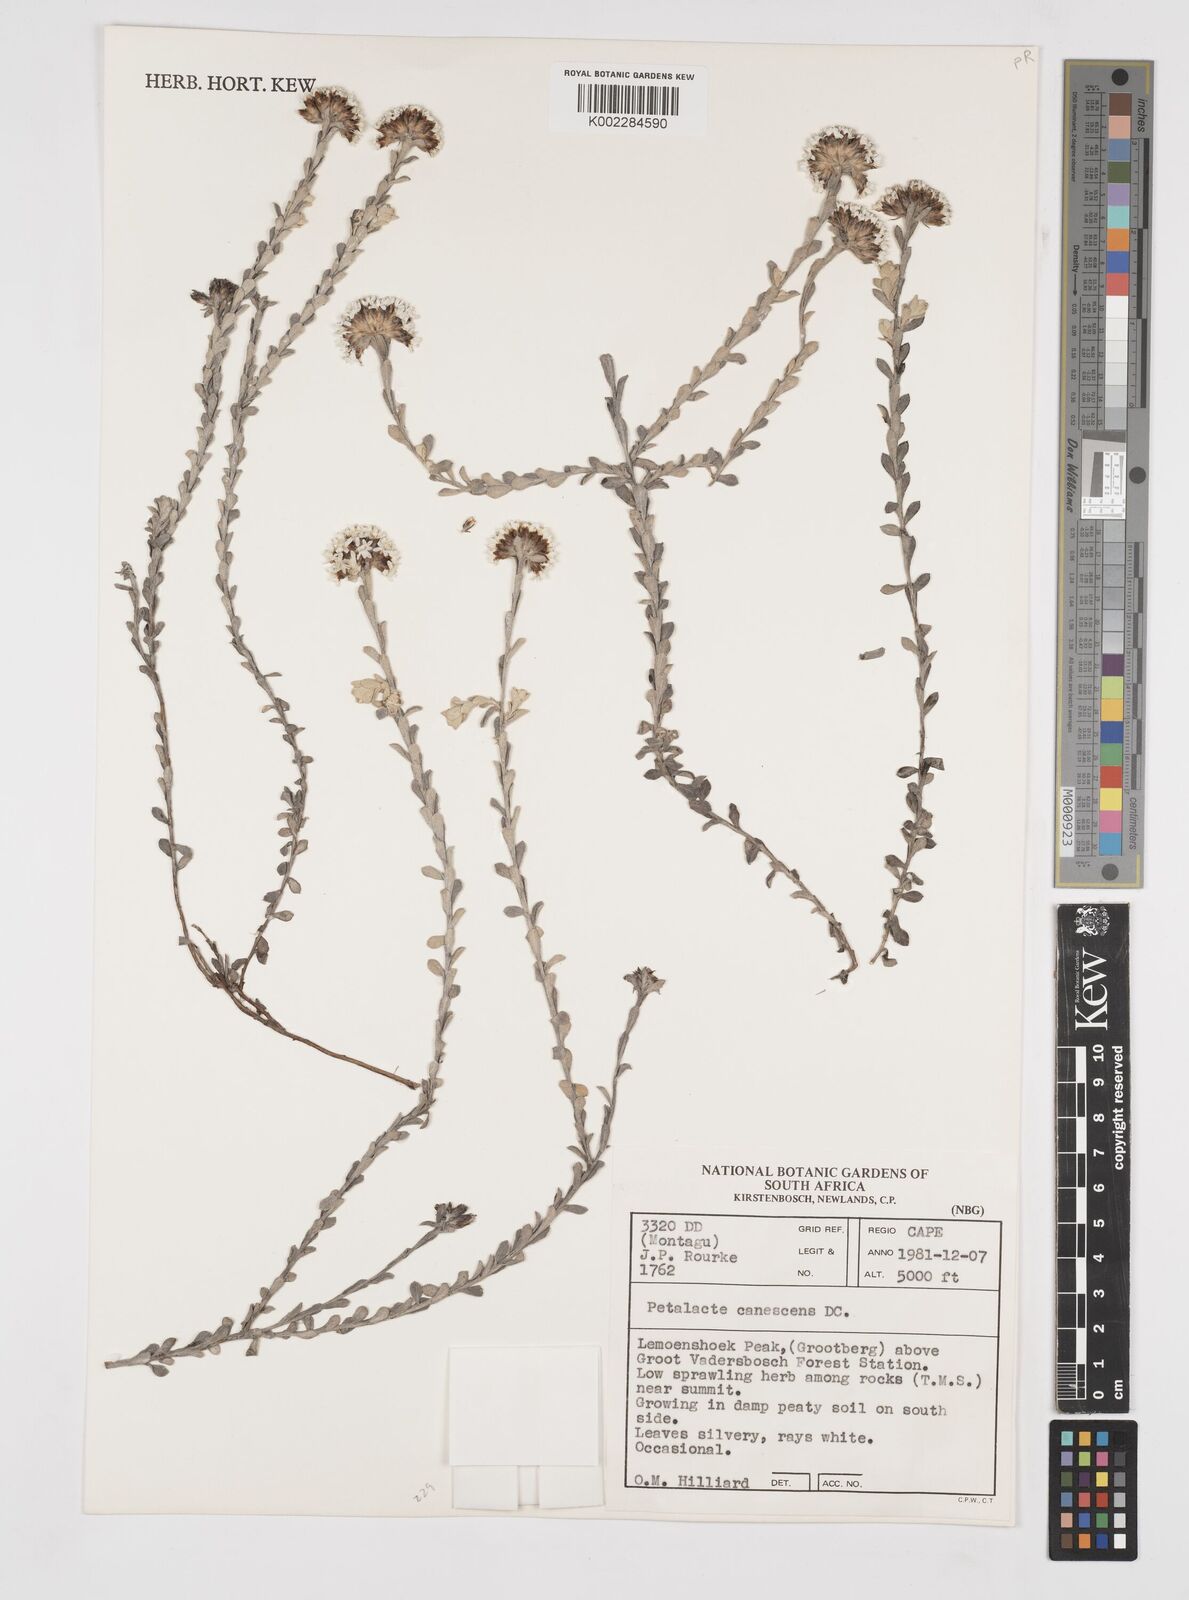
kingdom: Plantae
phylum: Tracheophyta
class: Magnoliopsida
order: Asterales
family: Asteraceae
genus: Langebergia
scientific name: Langebergia canescens
